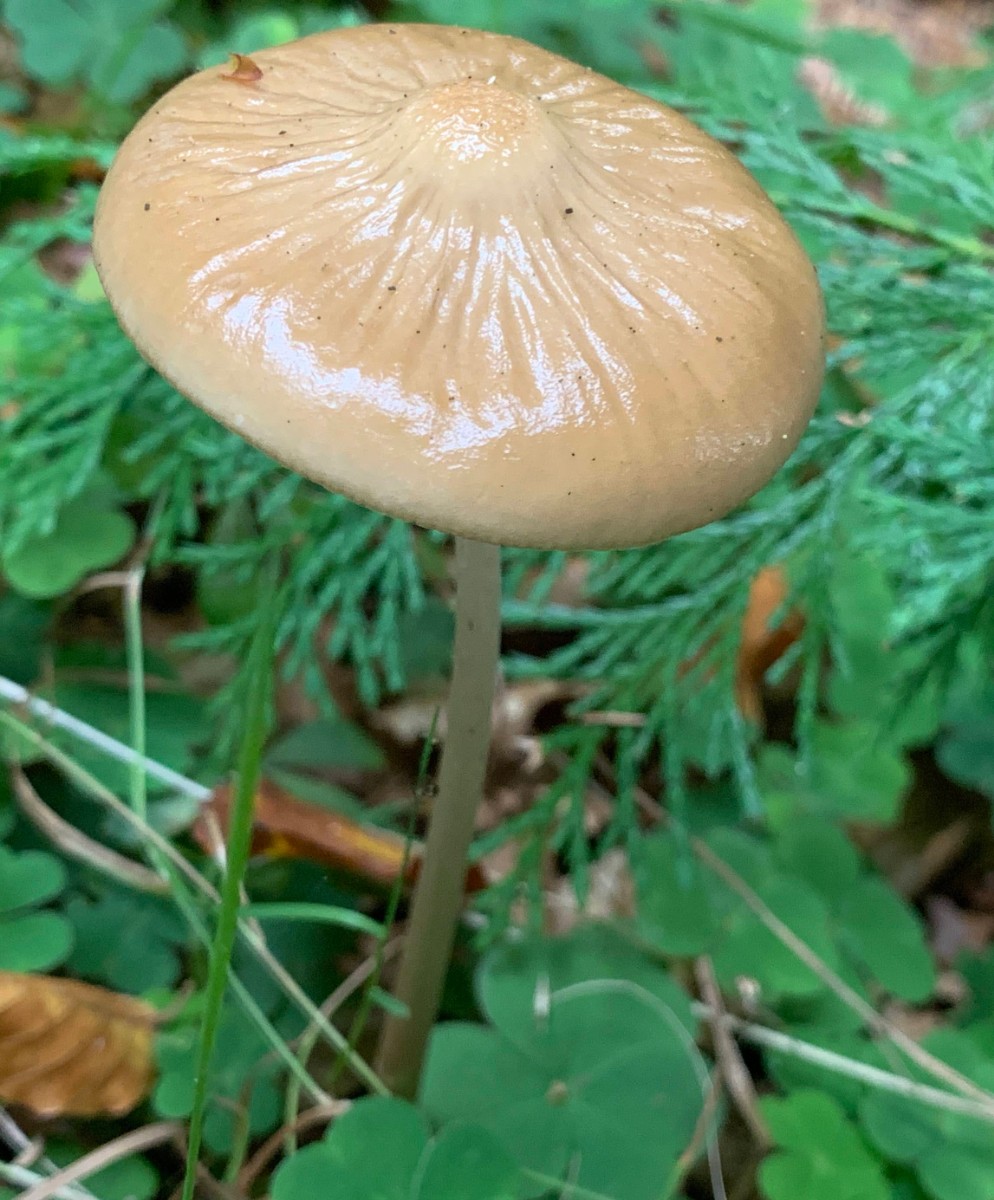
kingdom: Fungi
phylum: Basidiomycota
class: Agaricomycetes
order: Agaricales
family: Physalacriaceae
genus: Hymenopellis
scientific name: Hymenopellis radicata
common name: almindelig pælerodshat
